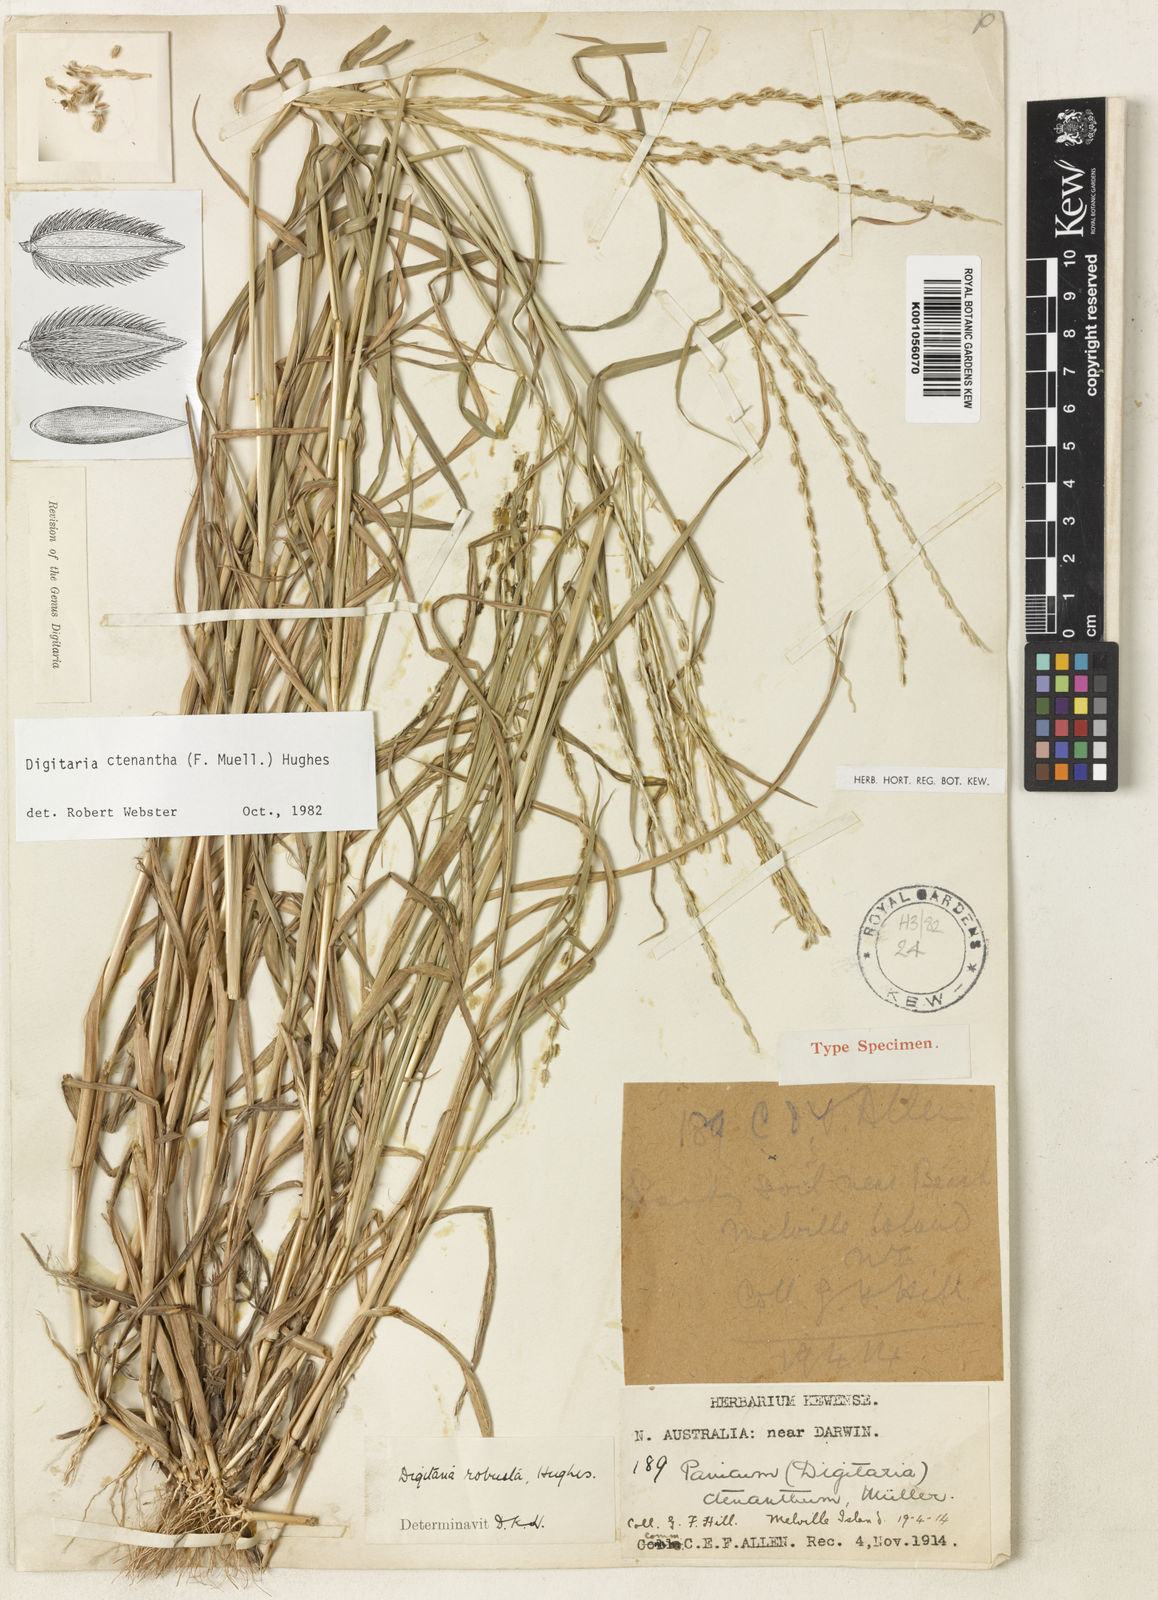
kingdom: Plantae
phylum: Tracheophyta
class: Liliopsida
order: Poales
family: Poaceae
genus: Digitaria
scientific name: Digitaria ctenantha
